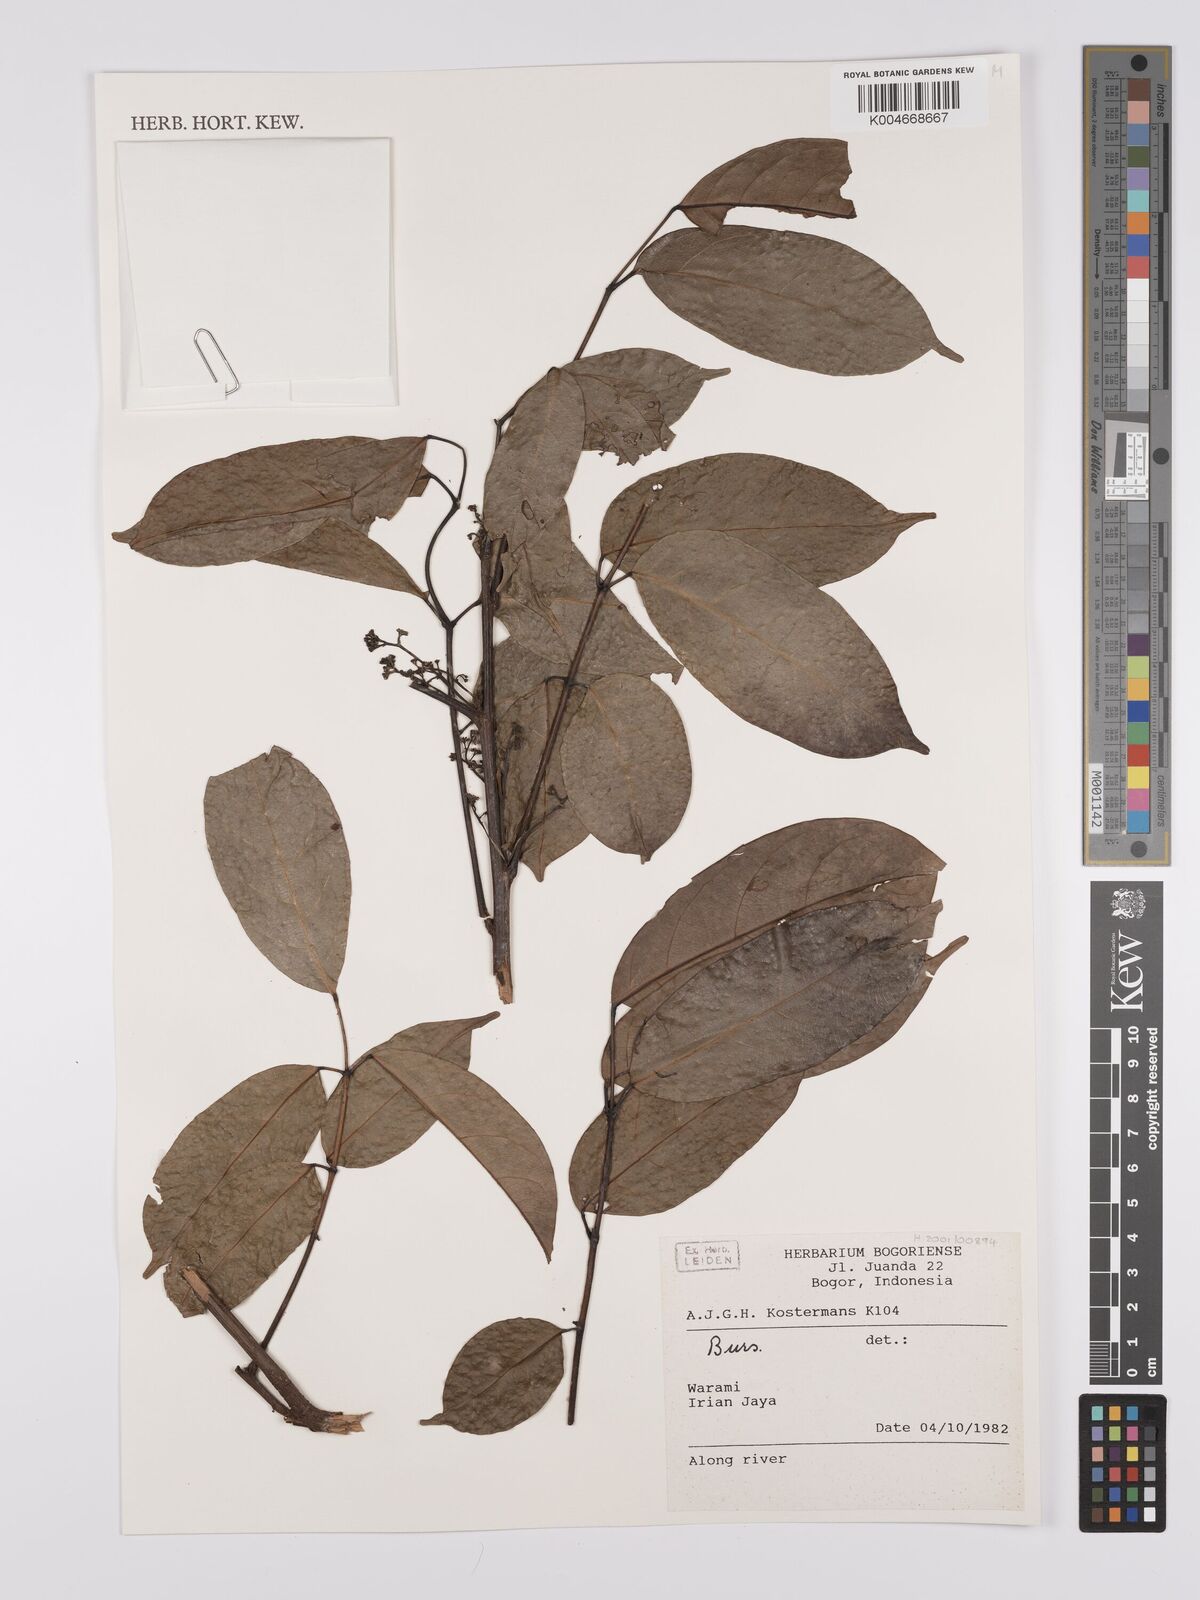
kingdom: Plantae
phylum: Tracheophyta
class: Magnoliopsida
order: Sapindales
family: Burseraceae
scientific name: Burseraceae
